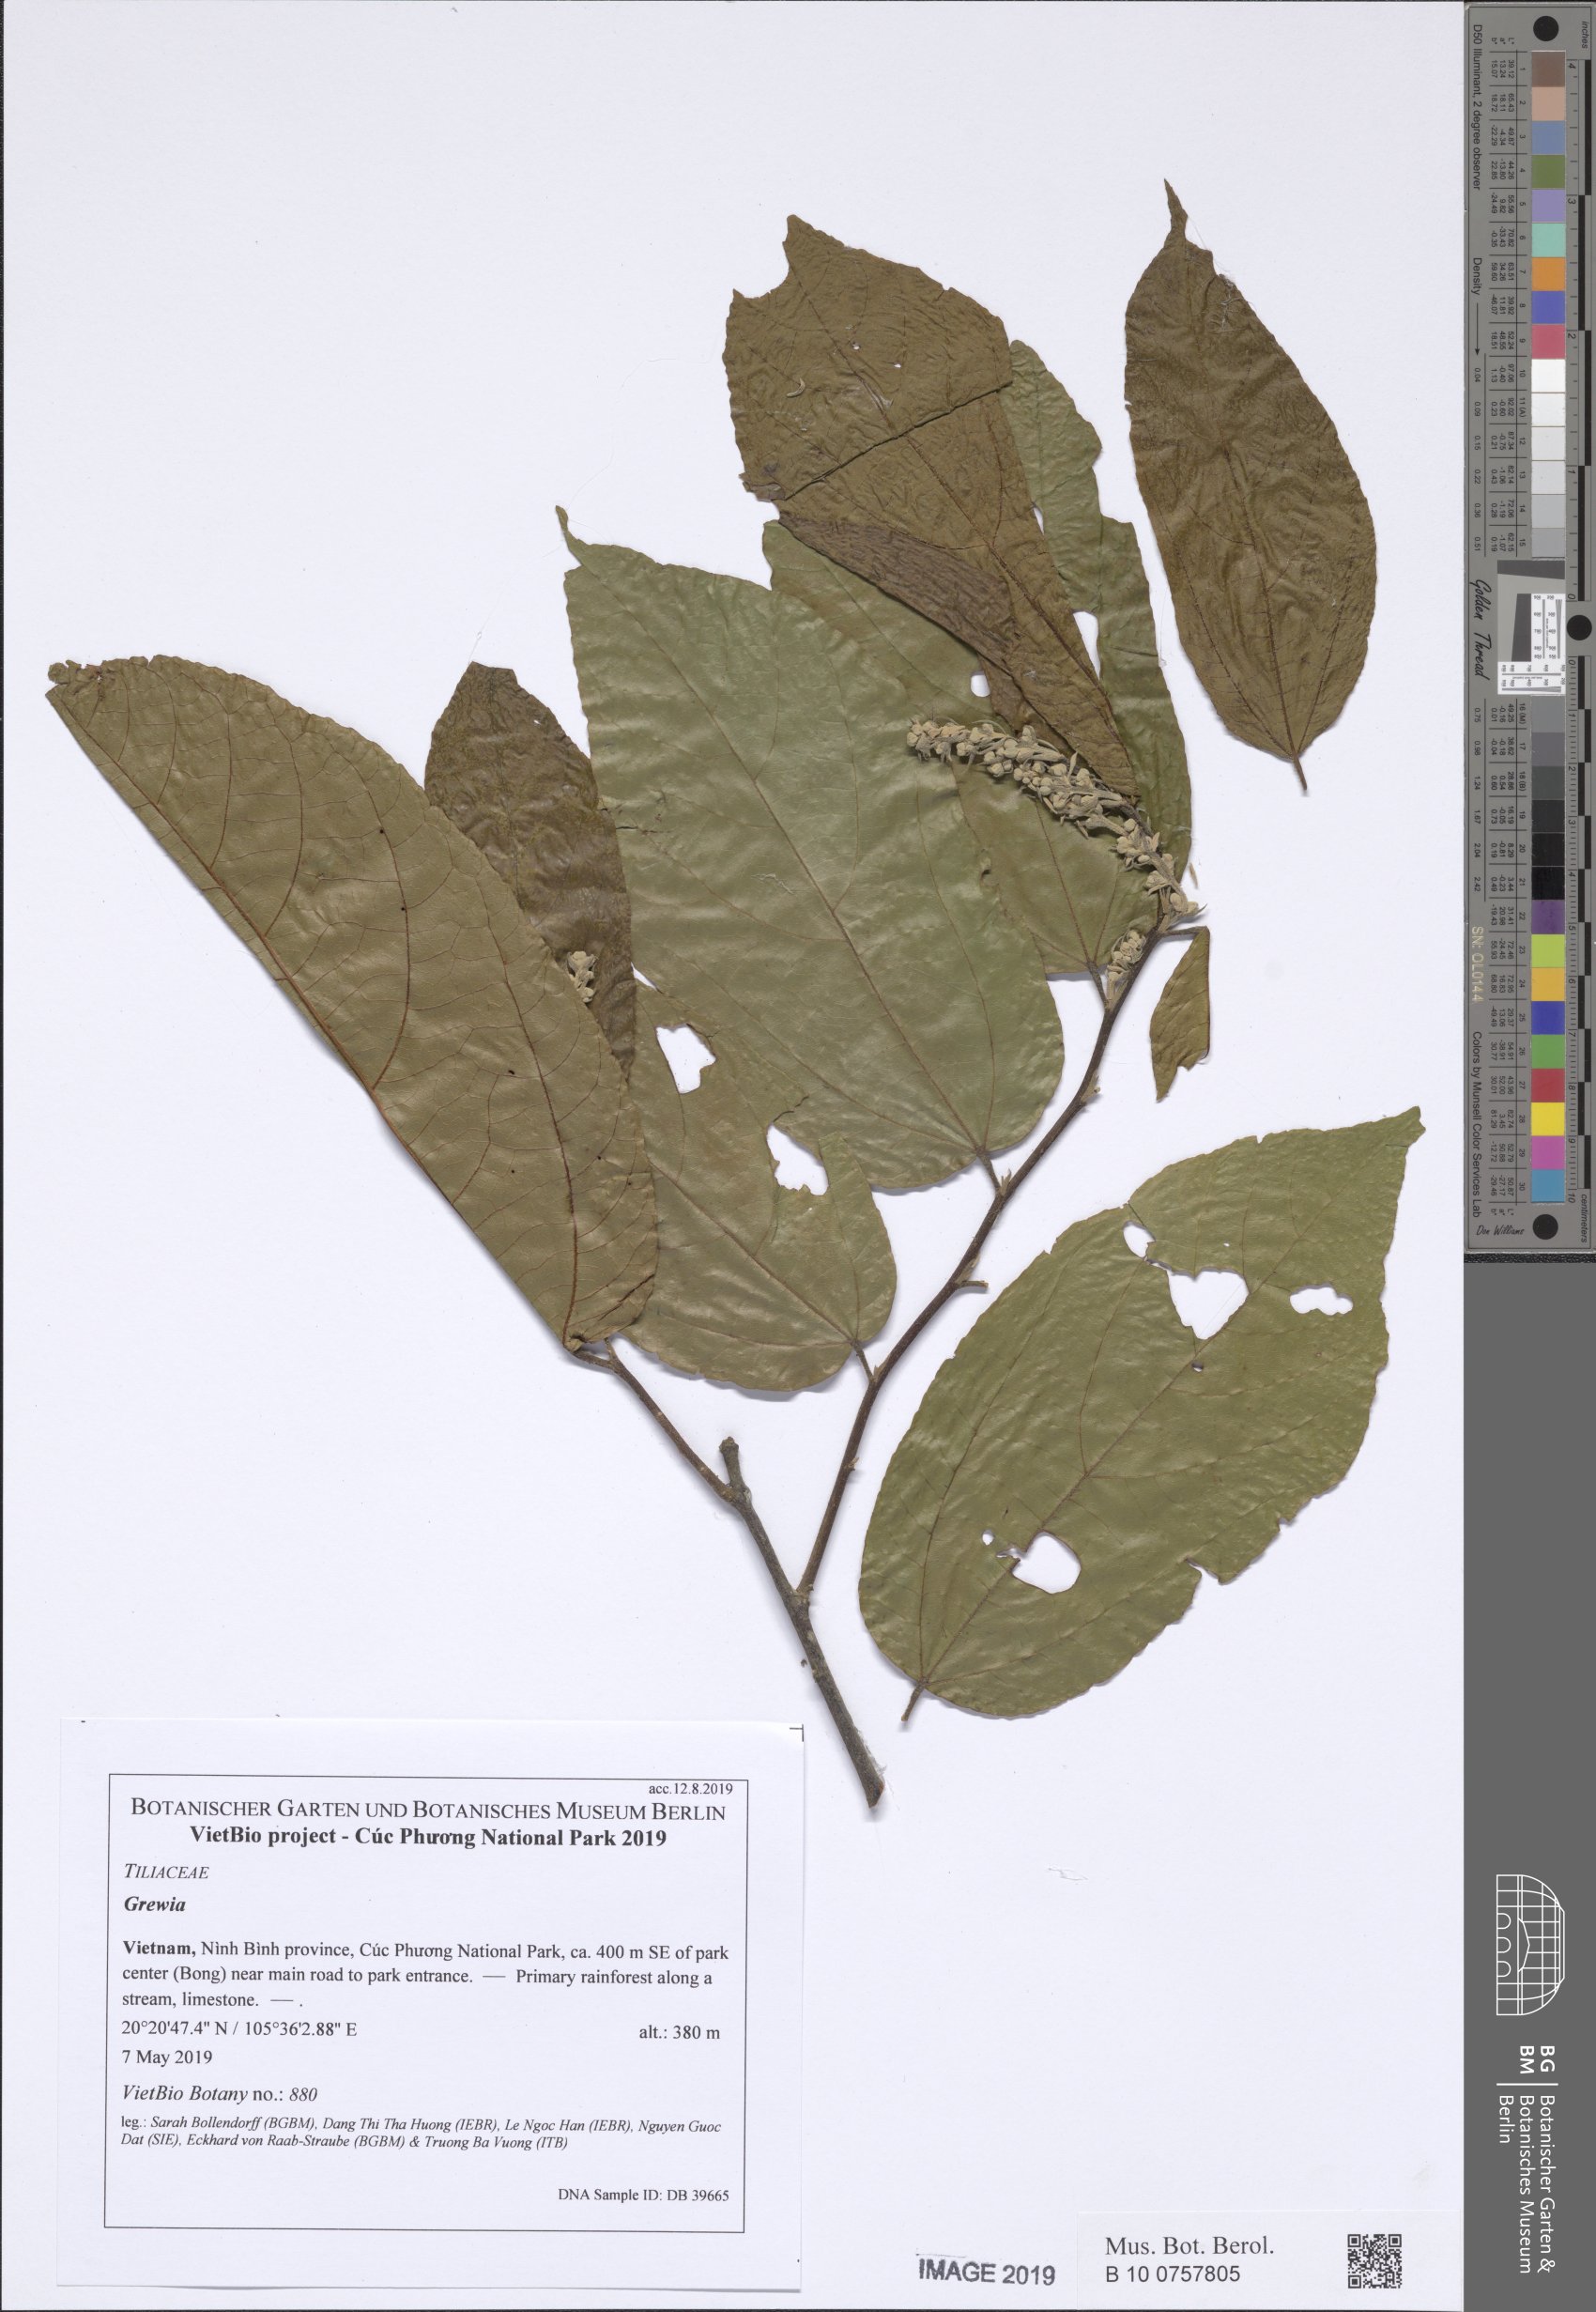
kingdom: Plantae
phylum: Tracheophyta
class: Magnoliopsida
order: Malvales
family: Malvaceae
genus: Microcos
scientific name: Microcos tomentosa
